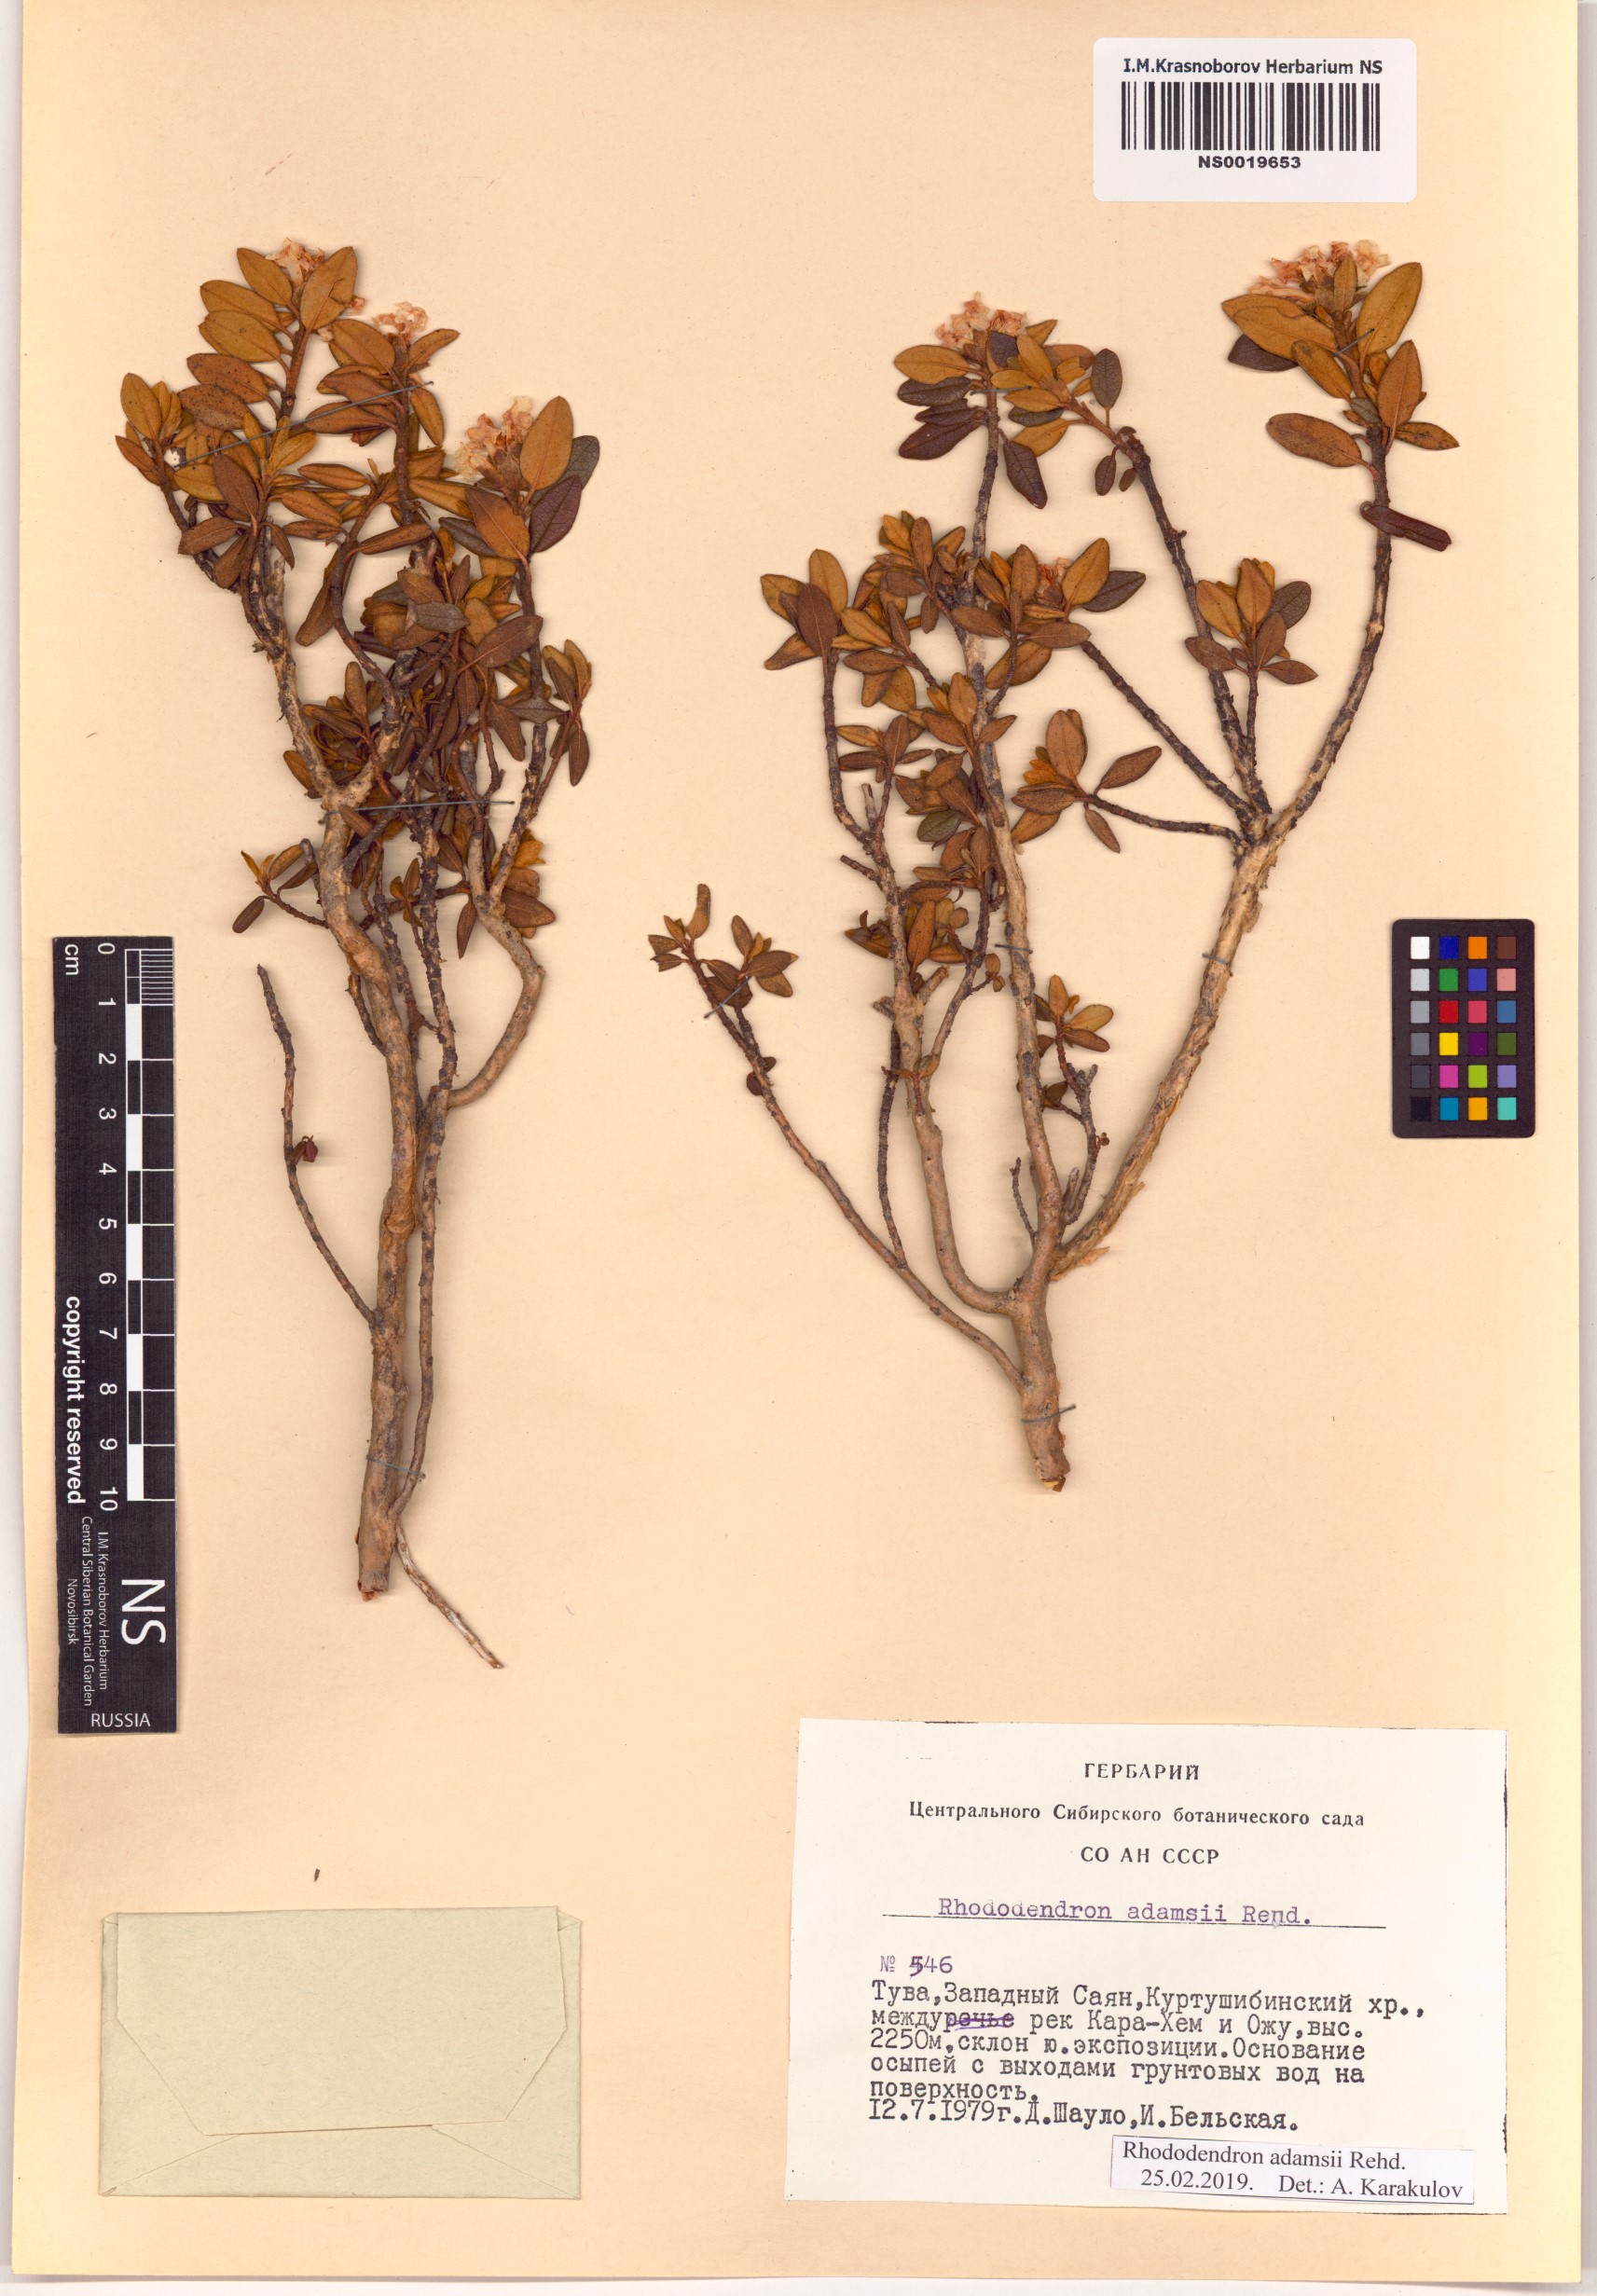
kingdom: Plantae
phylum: Tracheophyta
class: Magnoliopsida
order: Ericales
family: Ericaceae
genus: Rhododendron
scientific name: Rhododendron adamsii
